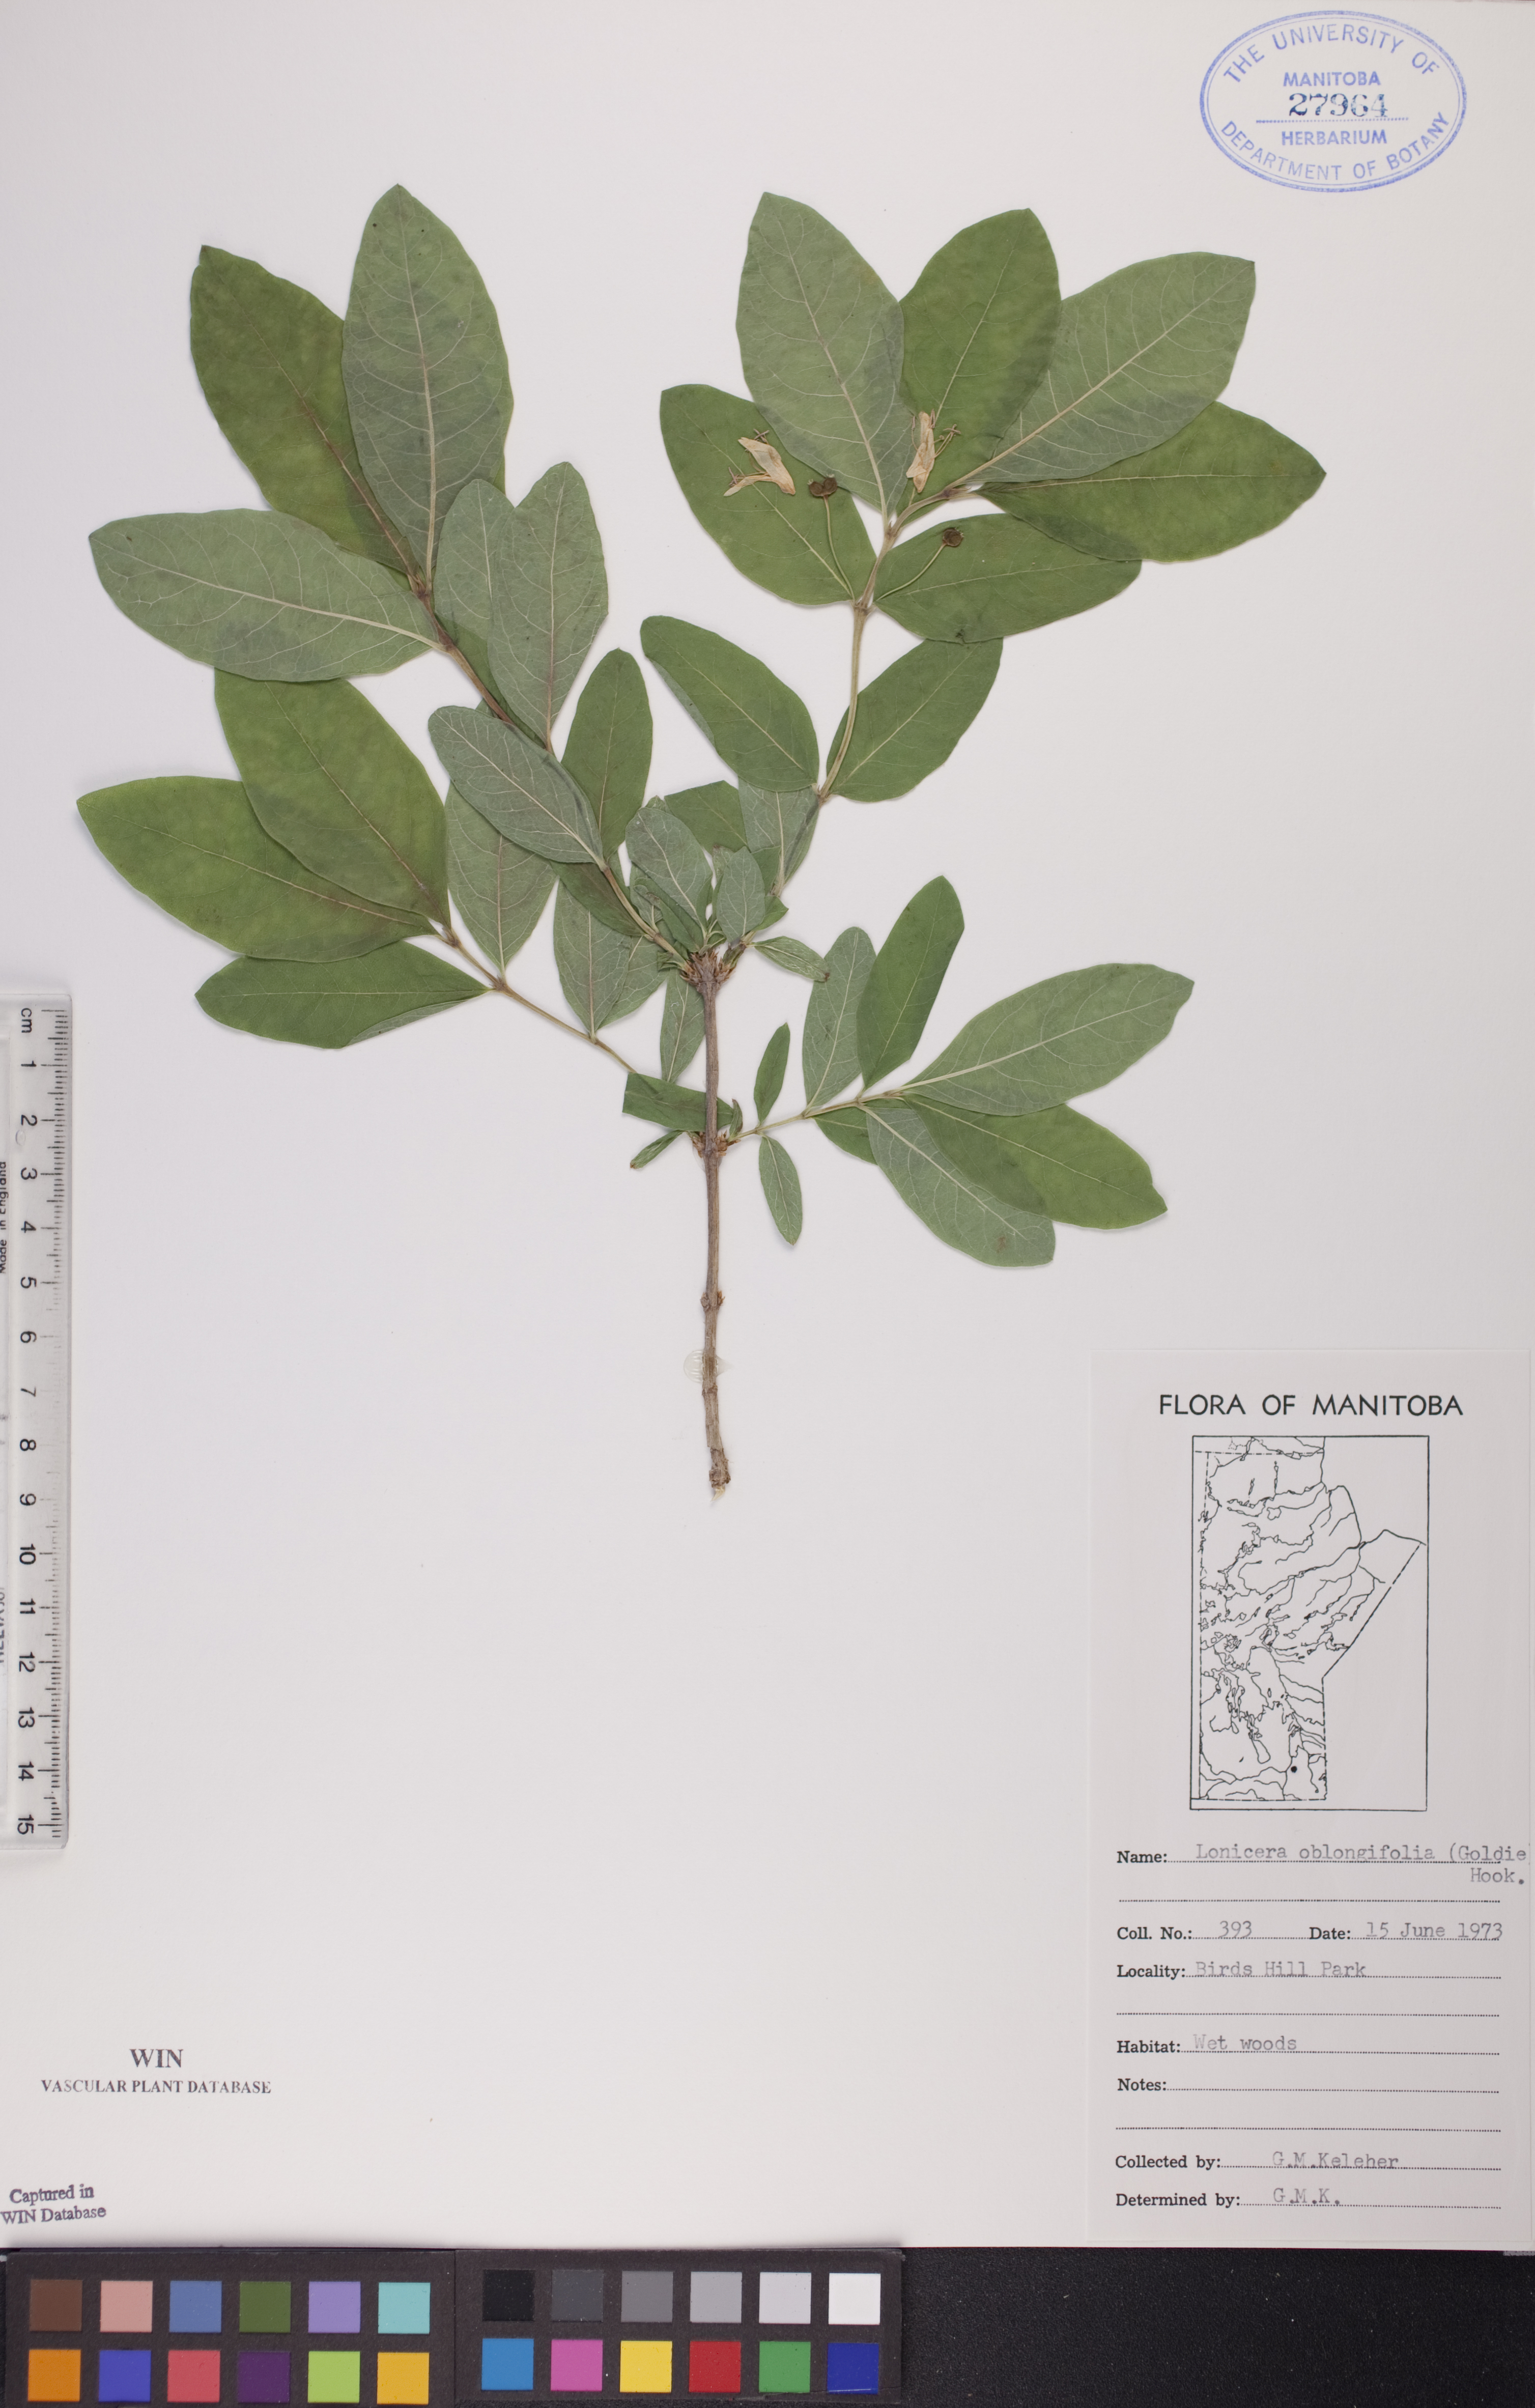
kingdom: Plantae
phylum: Tracheophyta
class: Magnoliopsida
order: Dipsacales
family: Caprifoliaceae
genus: Lonicera
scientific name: Lonicera oblongifolia
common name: Swamp fly honeysuckle
